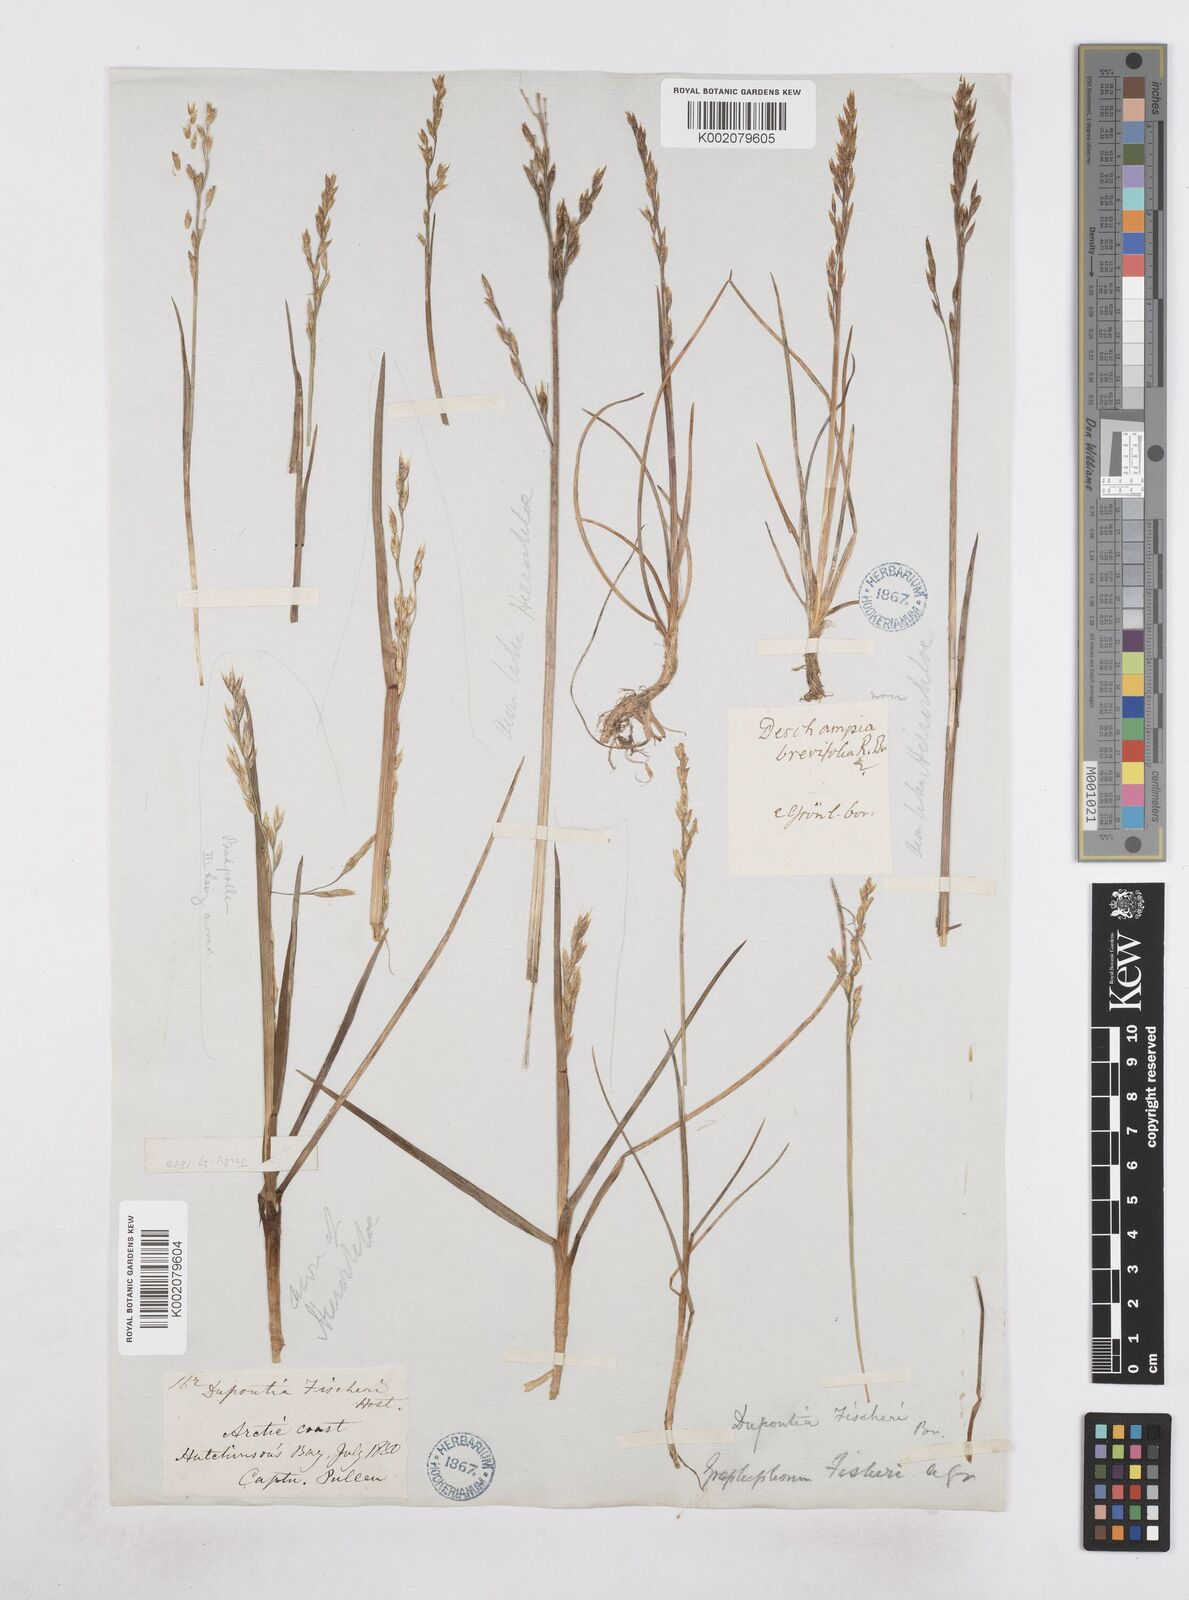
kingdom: Plantae
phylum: Tracheophyta
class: Liliopsida
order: Poales
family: Poaceae
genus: Dupontia
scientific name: Dupontia fisheri
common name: Tundra grass
